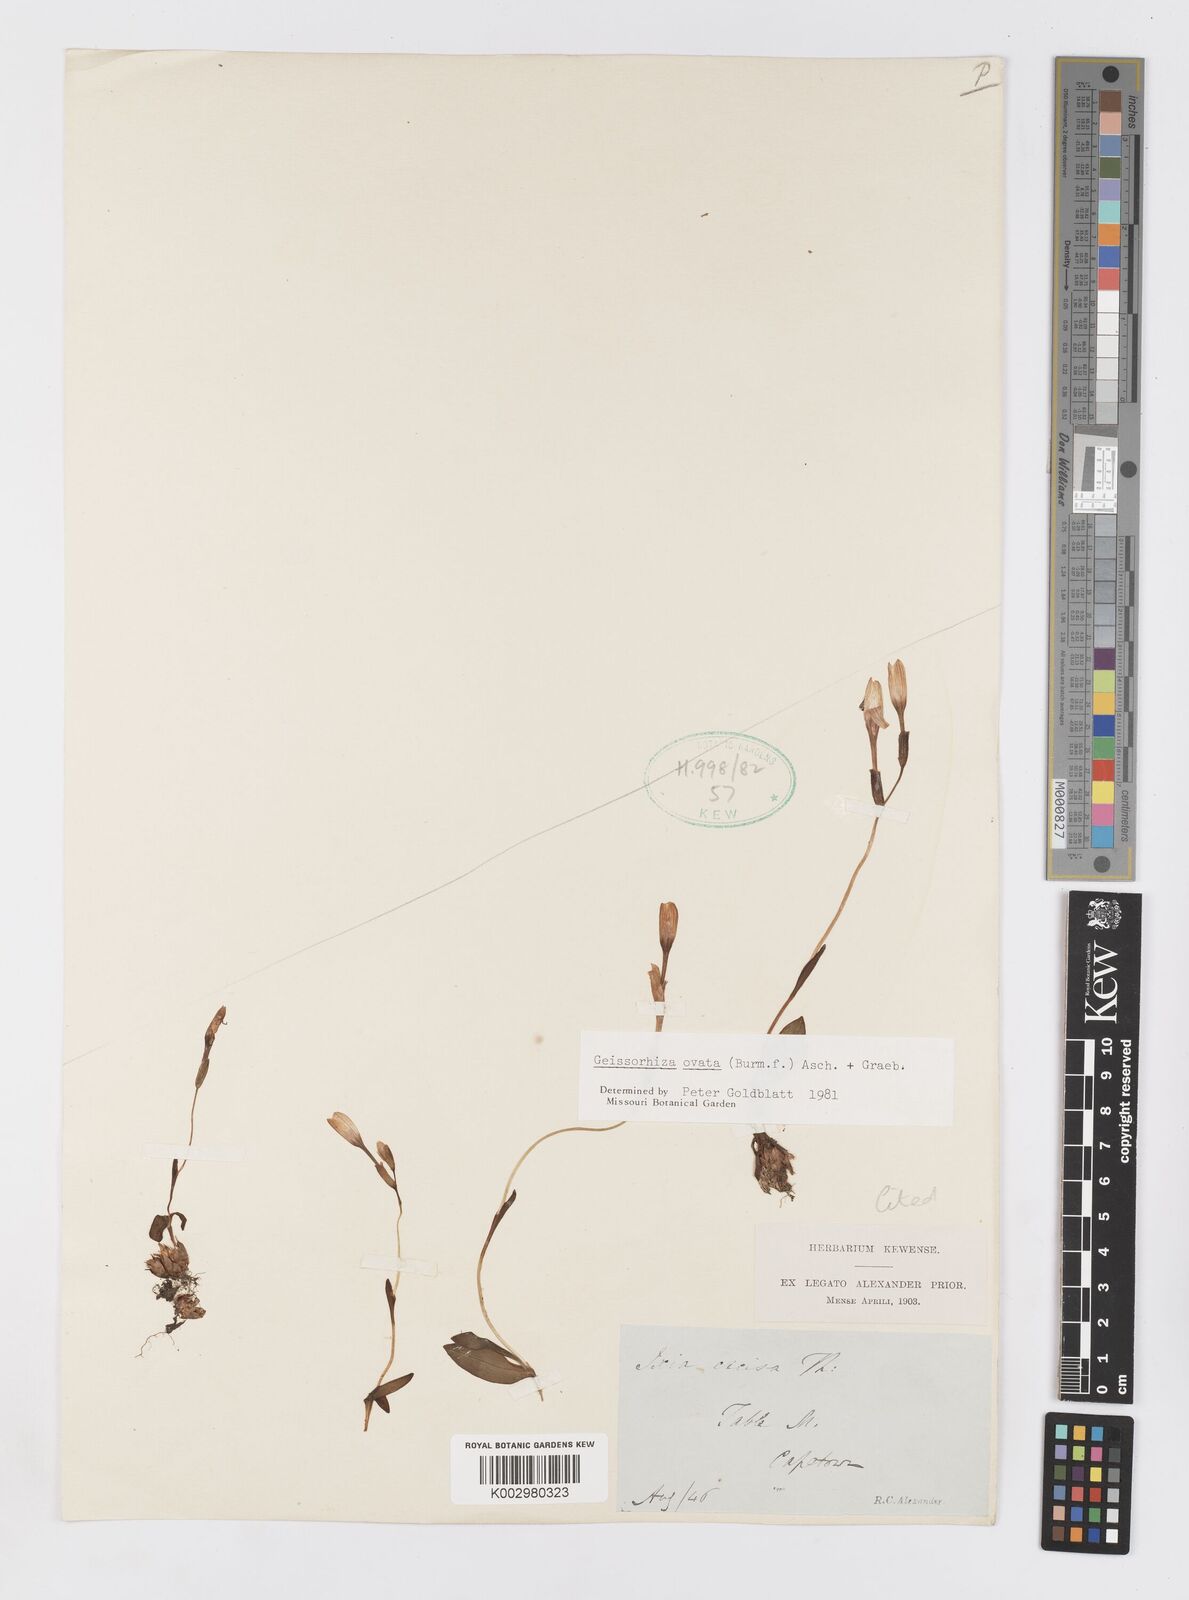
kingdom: Plantae
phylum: Tracheophyta
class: Liliopsida
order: Asparagales
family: Iridaceae
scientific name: Iridaceae
